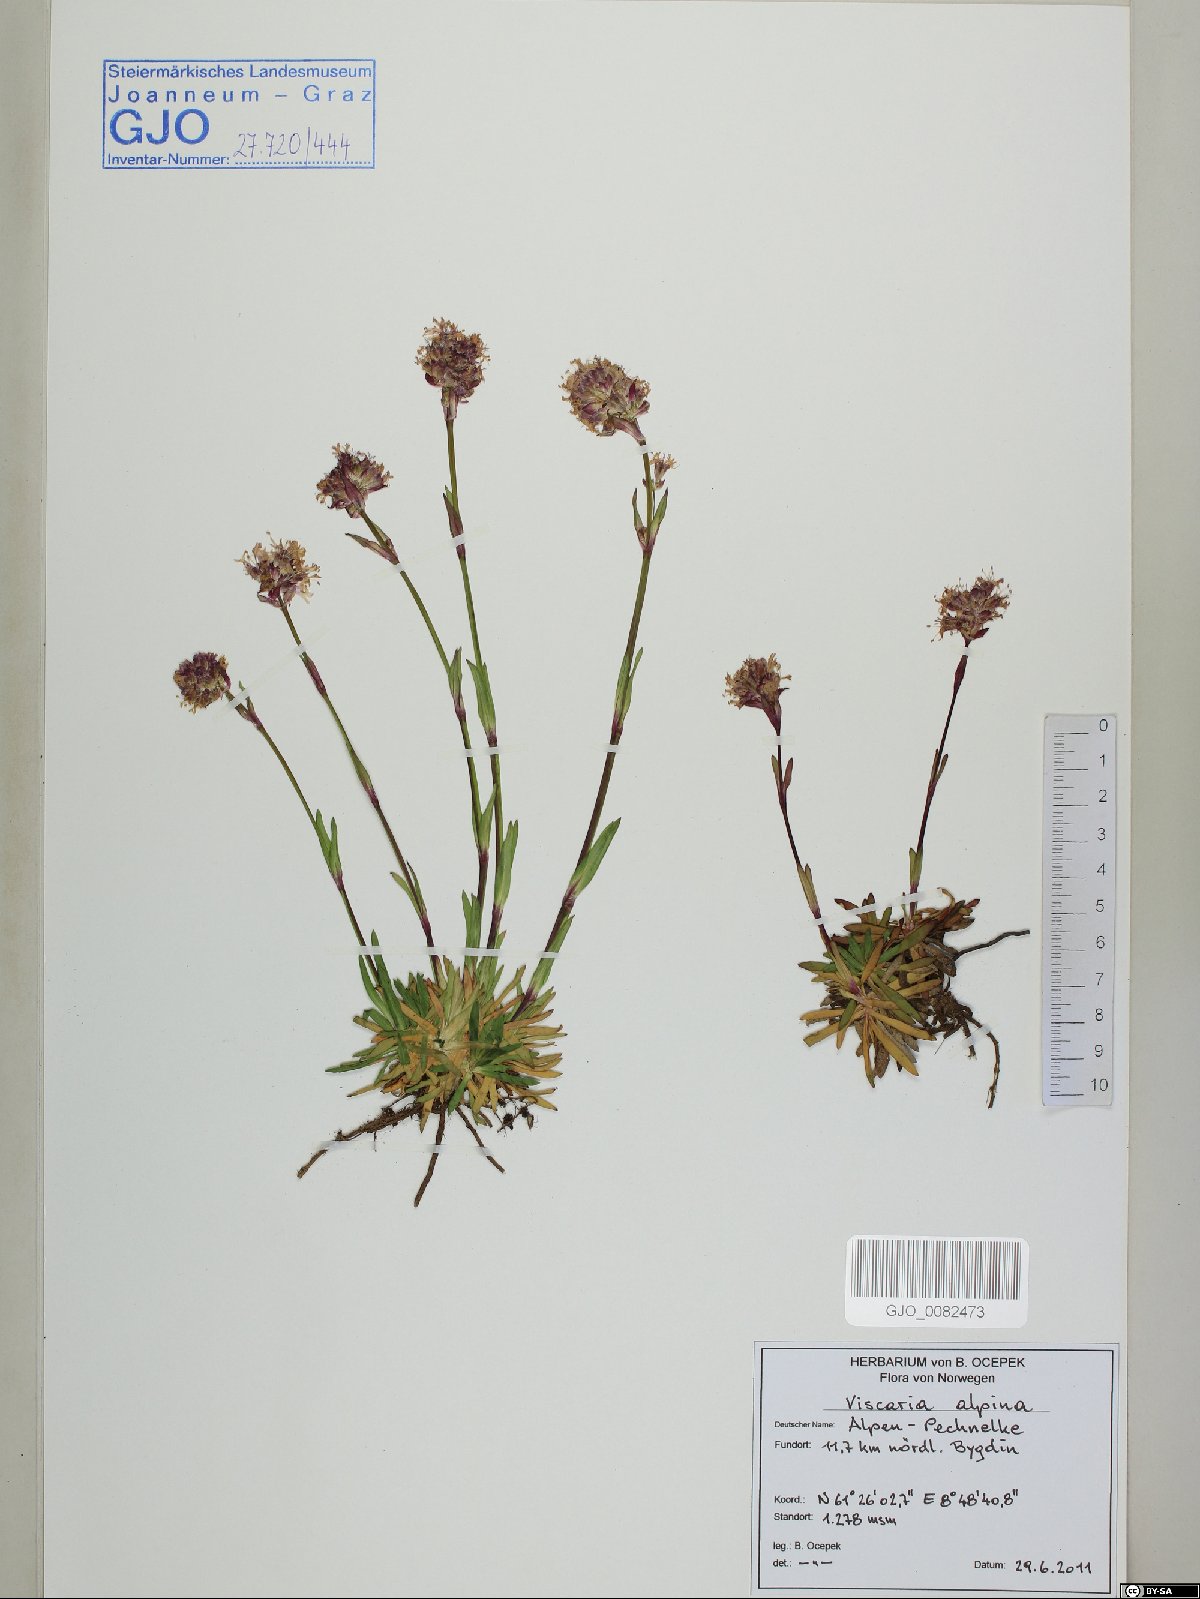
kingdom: Plantae
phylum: Tracheophyta
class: Magnoliopsida
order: Caryophyllales
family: Caryophyllaceae
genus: Viscaria
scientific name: Viscaria alpina
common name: Alpine campion
